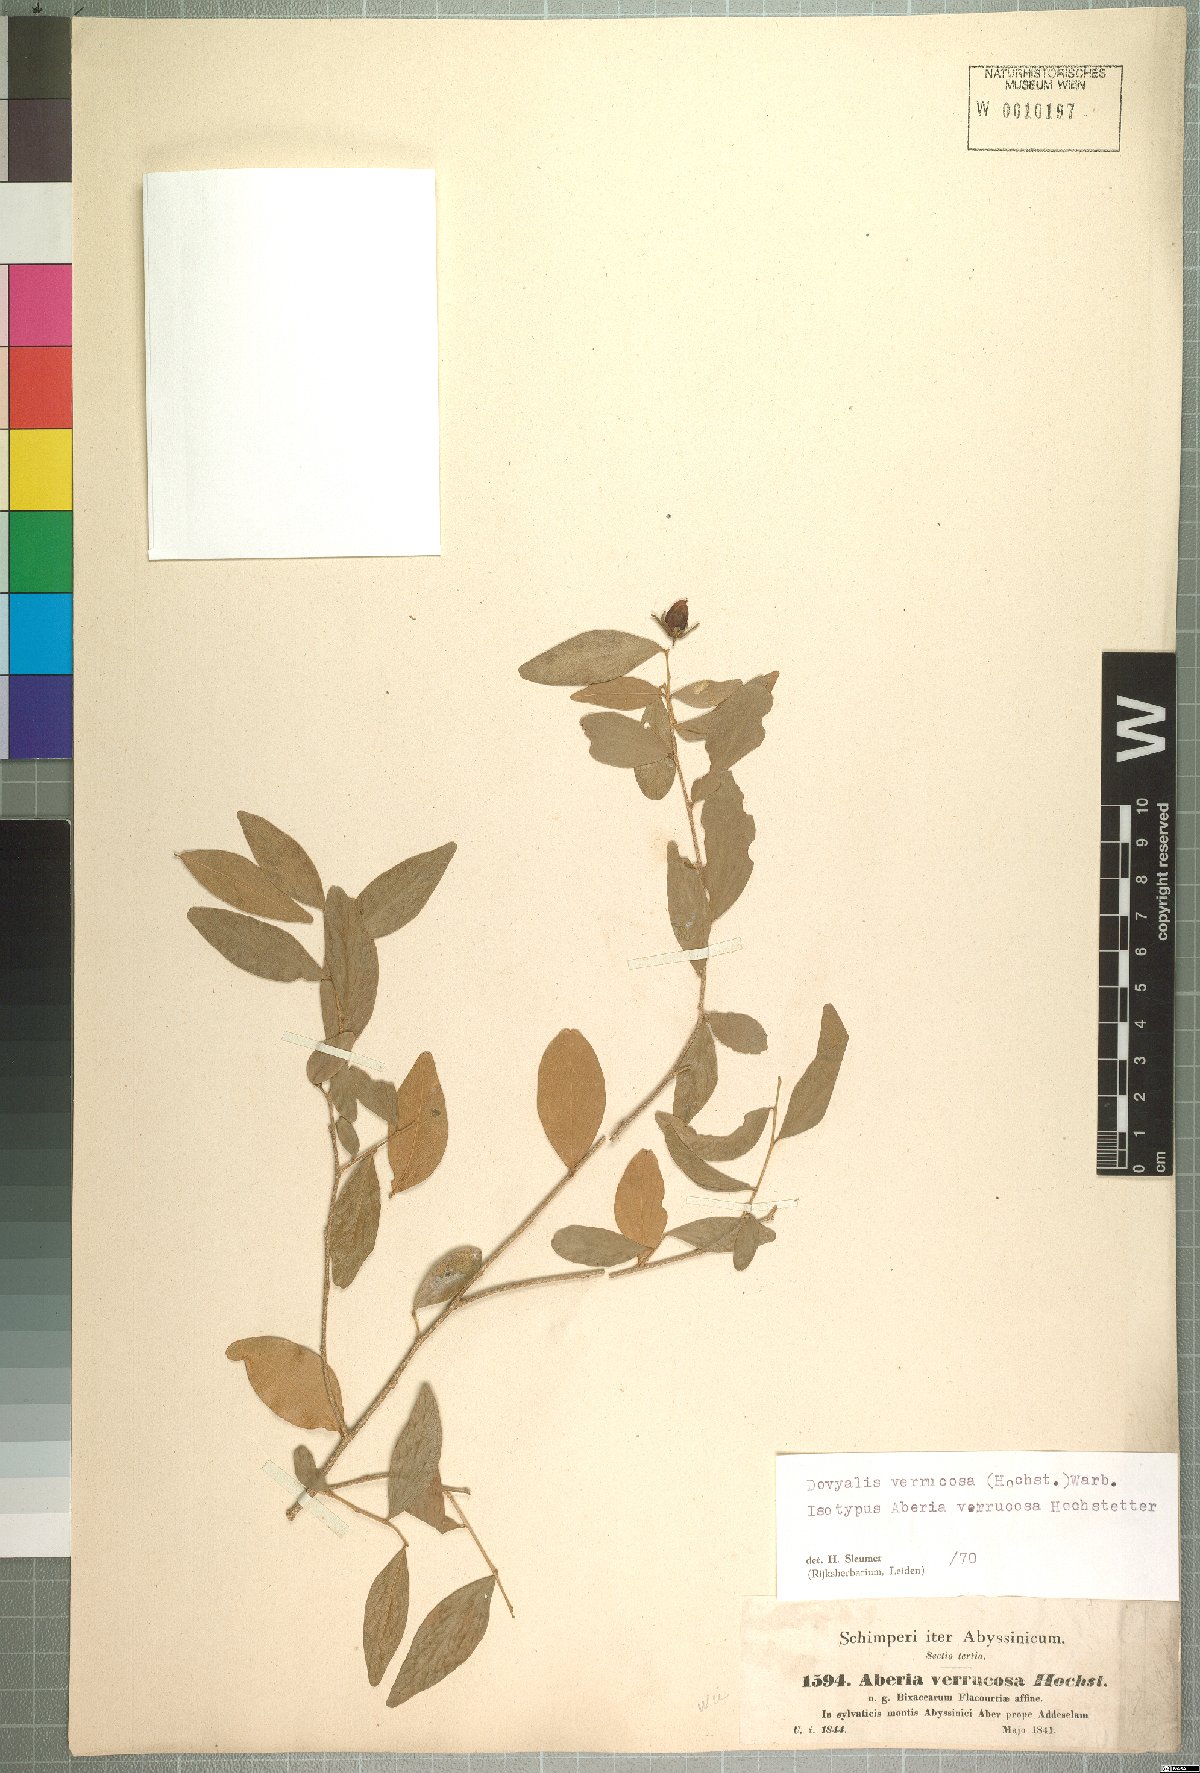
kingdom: Plantae
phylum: Tracheophyta
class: Magnoliopsida
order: Malpighiales
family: Salicaceae
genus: Dovyalis
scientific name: Dovyalis verrucosa
